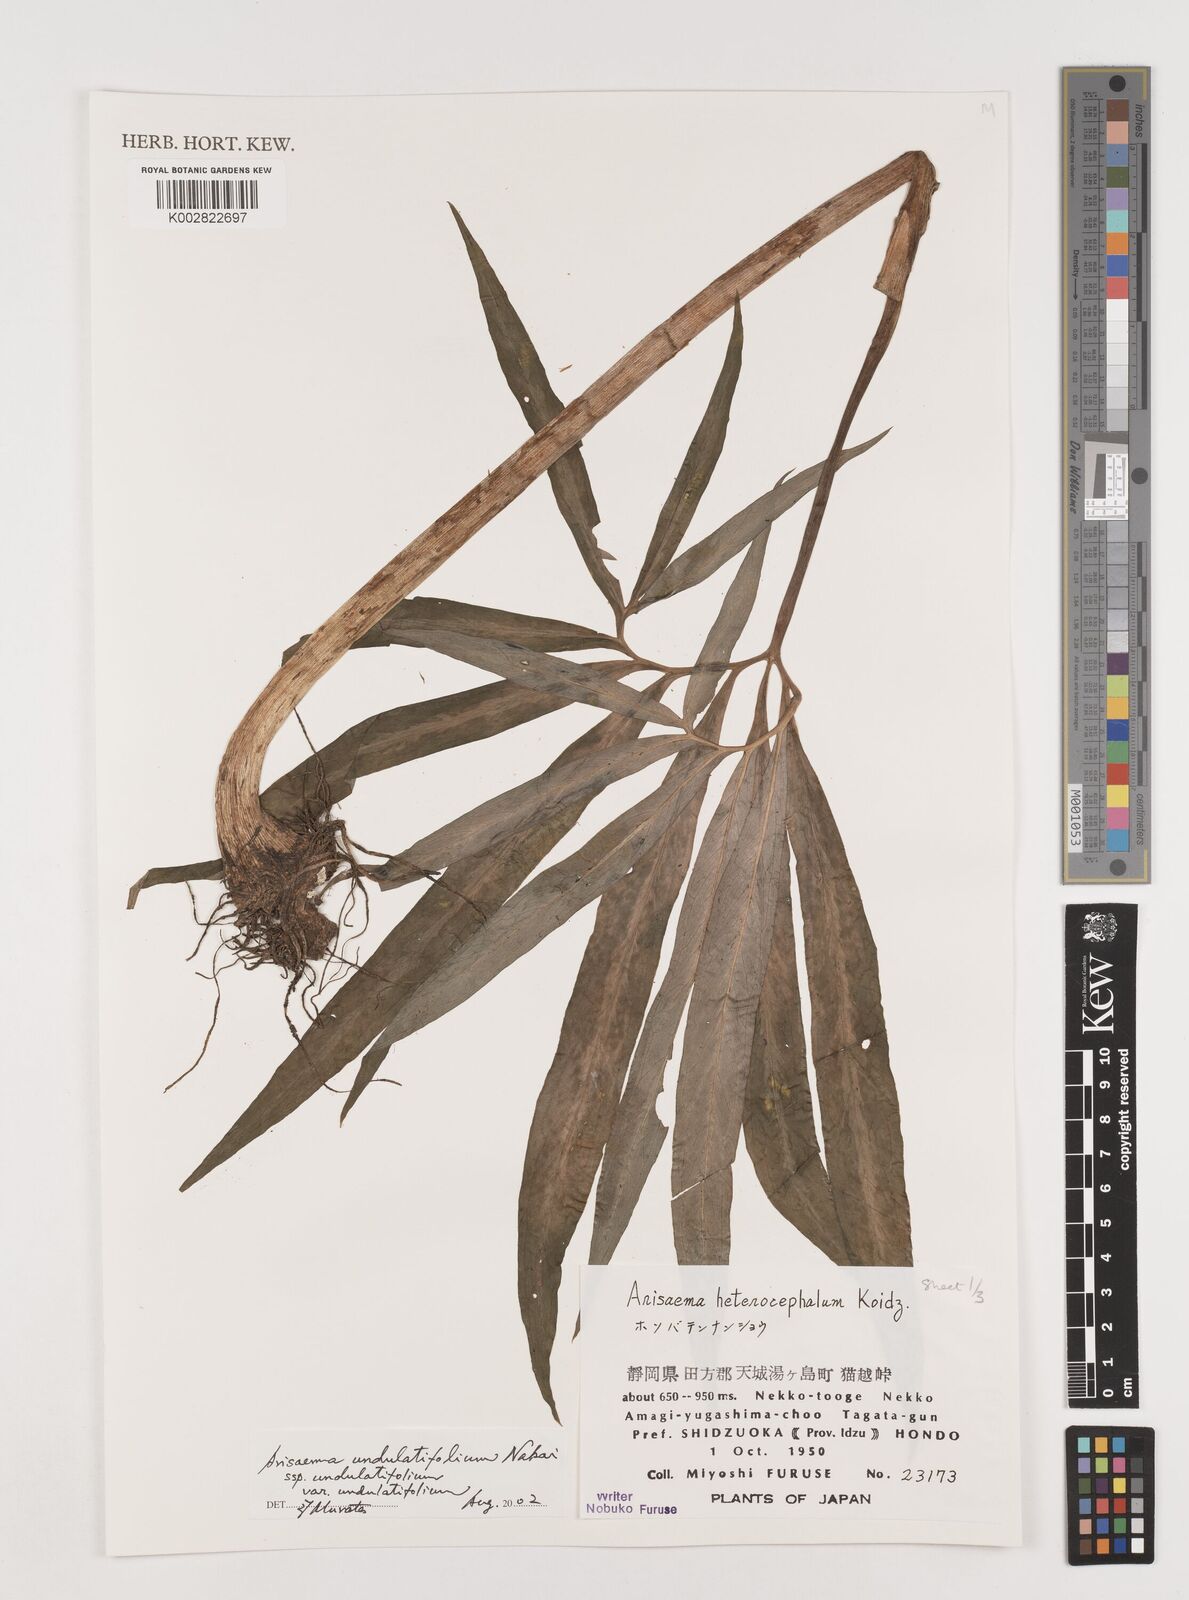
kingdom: Plantae
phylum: Tracheophyta
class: Liliopsida
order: Alismatales
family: Araceae
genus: Arisaema
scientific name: Arisaema undulatifolium
